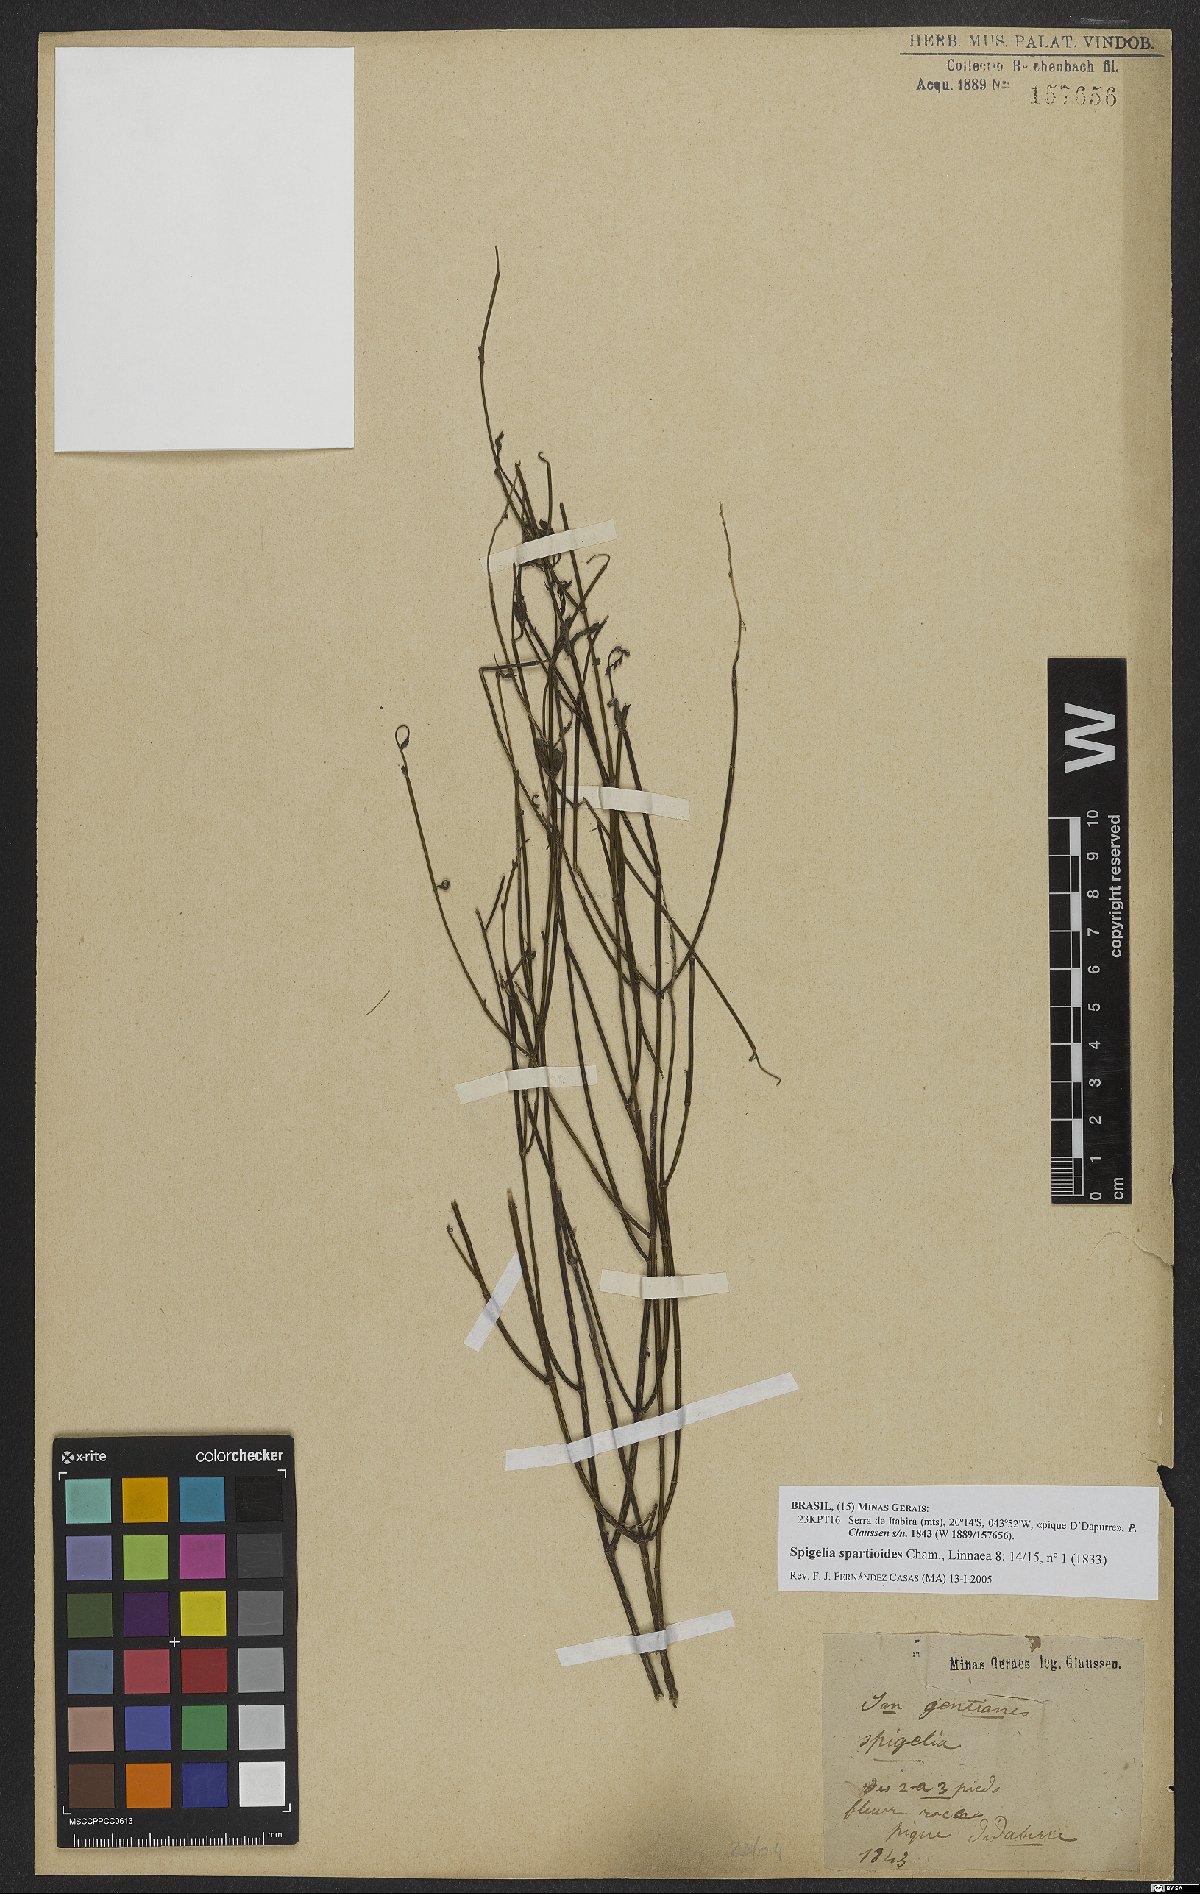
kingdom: Plantae
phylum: Tracheophyta
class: Magnoliopsida
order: Gentianales
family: Loganiaceae
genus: Spigelia
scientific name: Spigelia spartioides
